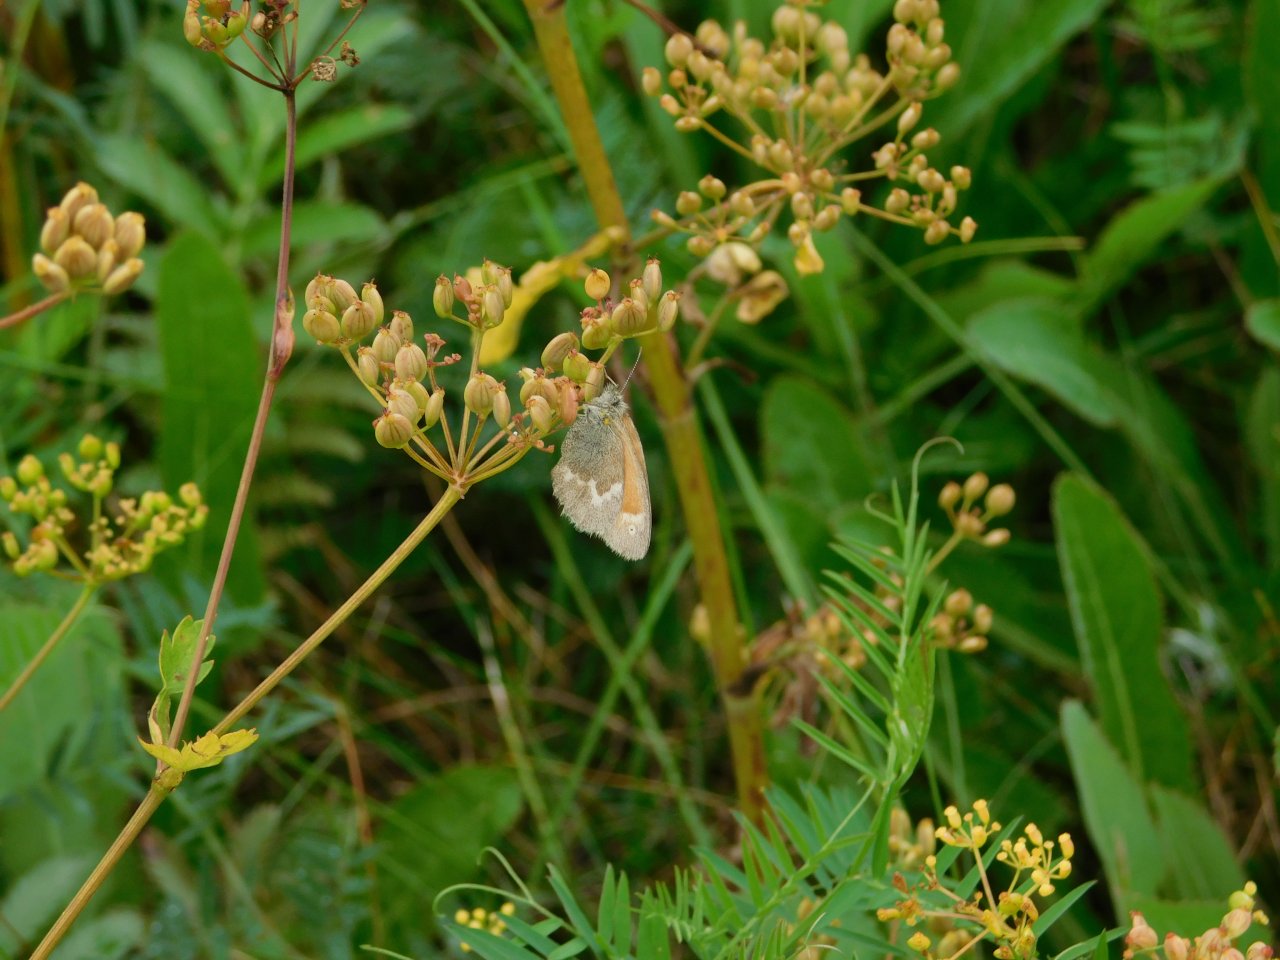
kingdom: Animalia
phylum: Arthropoda
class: Insecta
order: Lepidoptera
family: Nymphalidae
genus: Coenonympha
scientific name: Coenonympha tullia
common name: Large Heath
